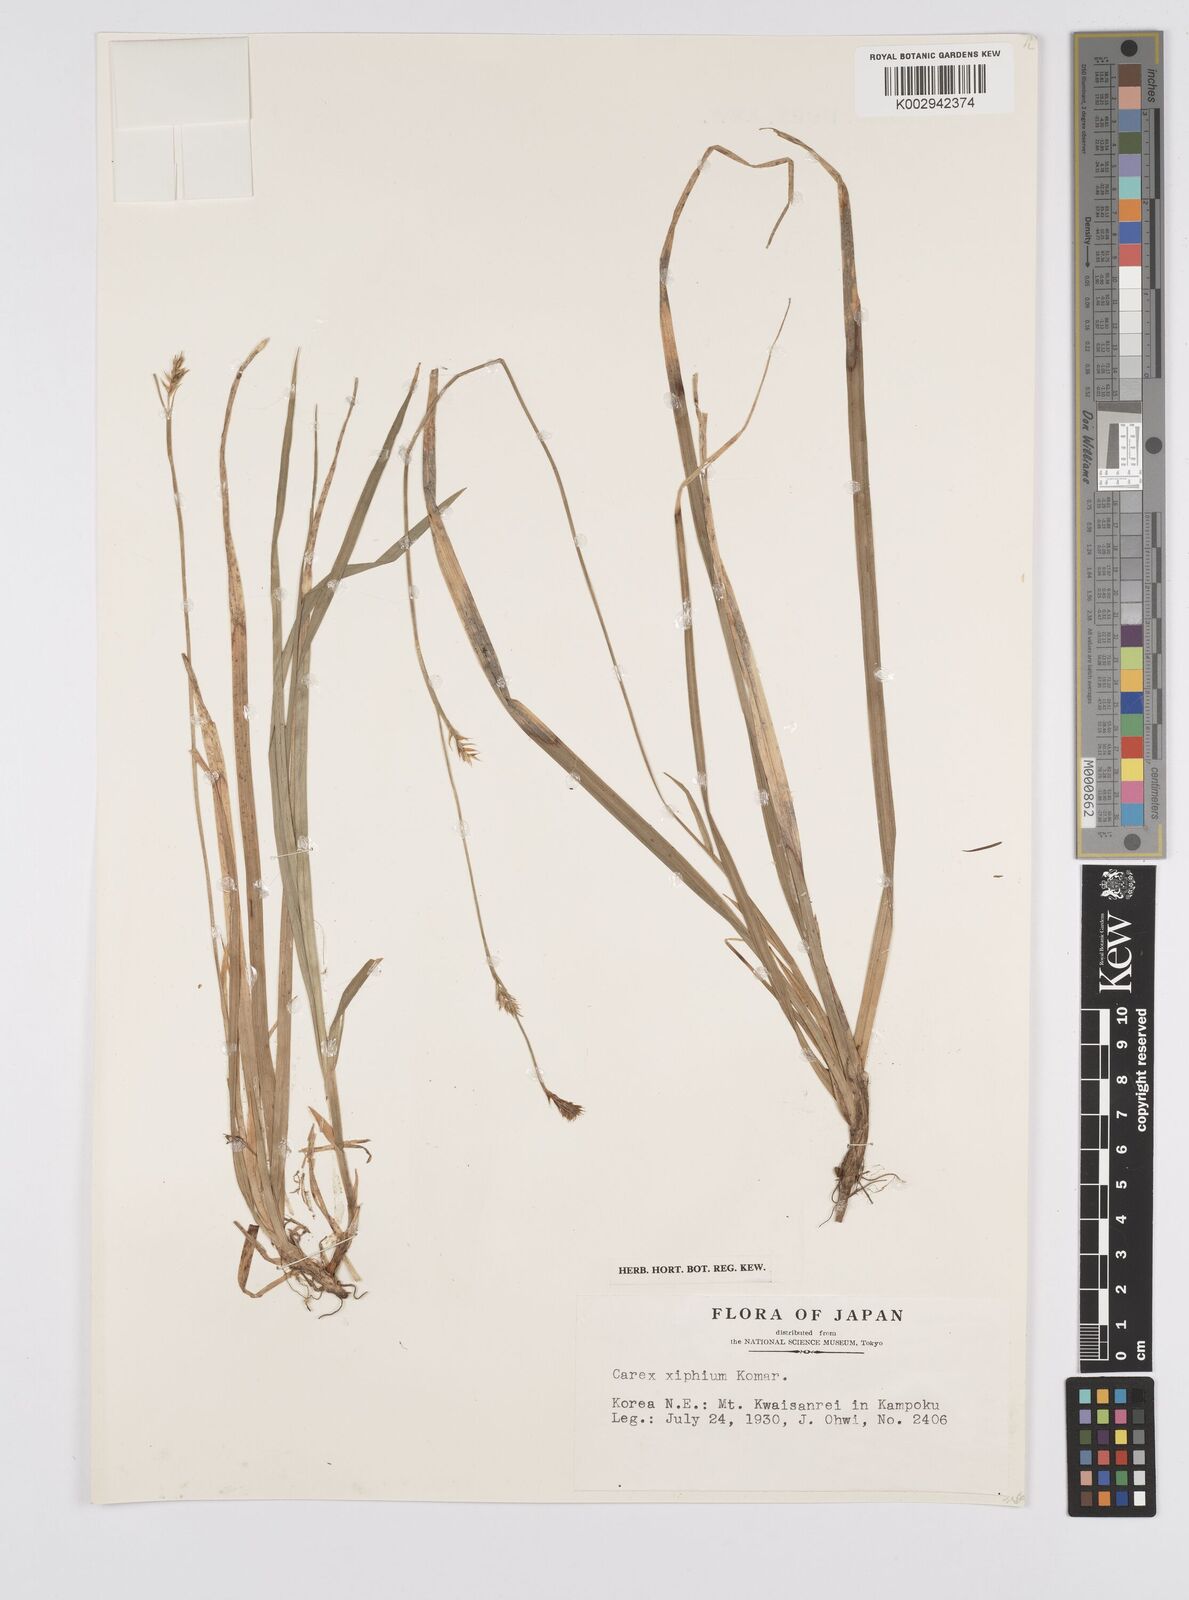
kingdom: Plantae
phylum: Tracheophyta
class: Liliopsida
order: Poales
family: Cyperaceae
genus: Carex
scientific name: Carex xiphium
